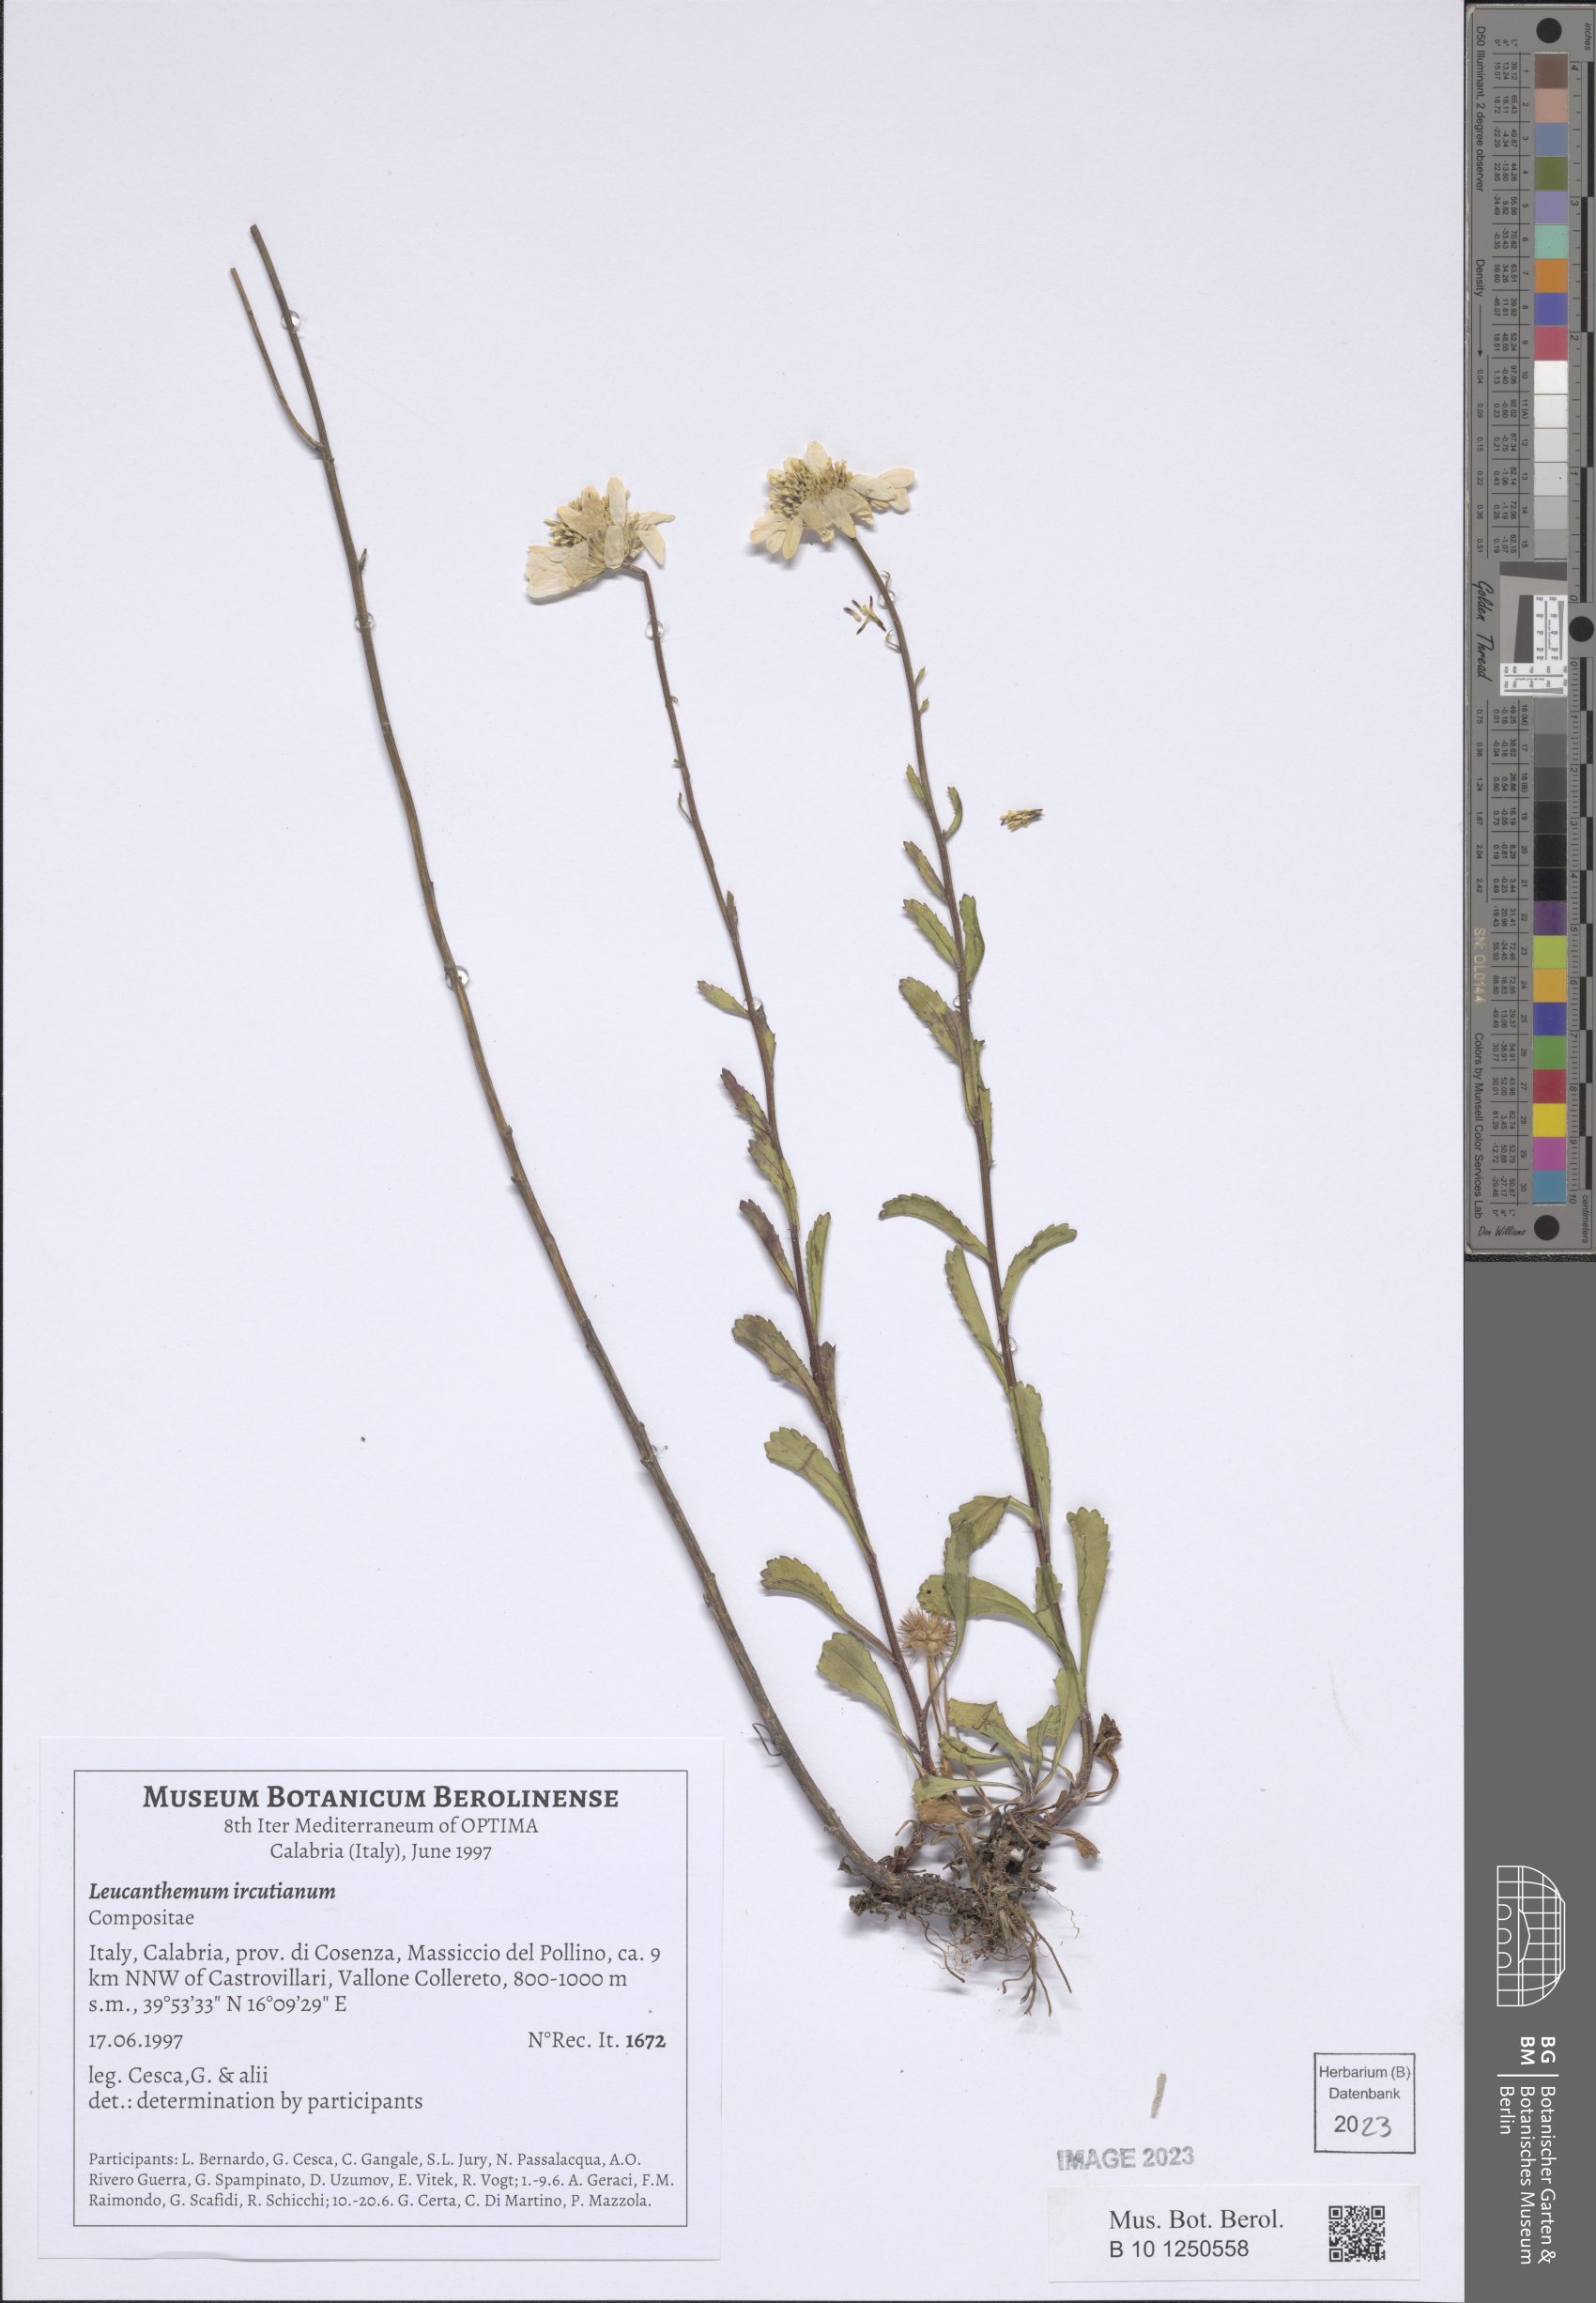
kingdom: Plantae
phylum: Tracheophyta
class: Magnoliopsida
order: Asterales
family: Asteraceae
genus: Leucanthemum
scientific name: Leucanthemum ircutianum
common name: Daisy
